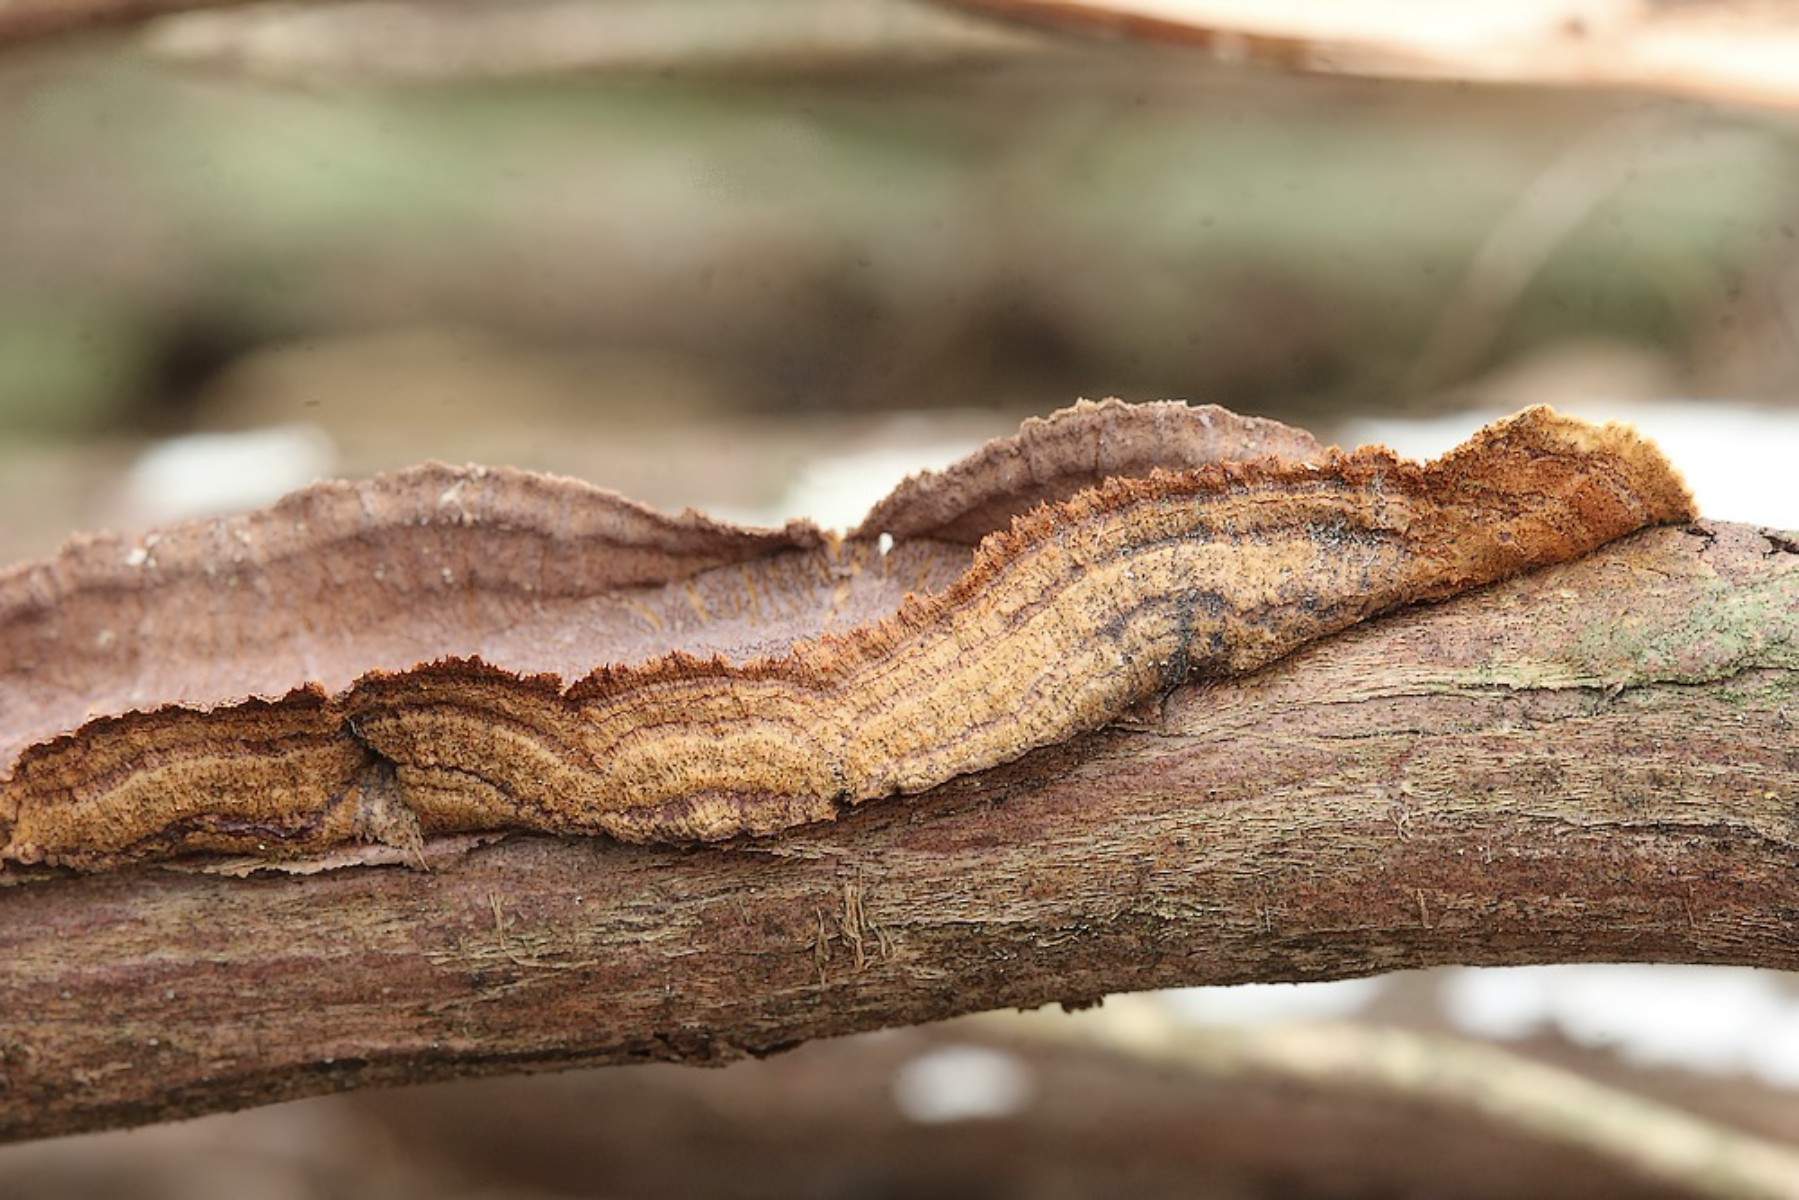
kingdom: Fungi
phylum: Basidiomycota
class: Agaricomycetes
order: Hymenochaetales
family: Hymenochaetaceae
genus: Hydnoporia
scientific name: Hydnoporia tabacina
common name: tobaksbrun ruslædersvamp
